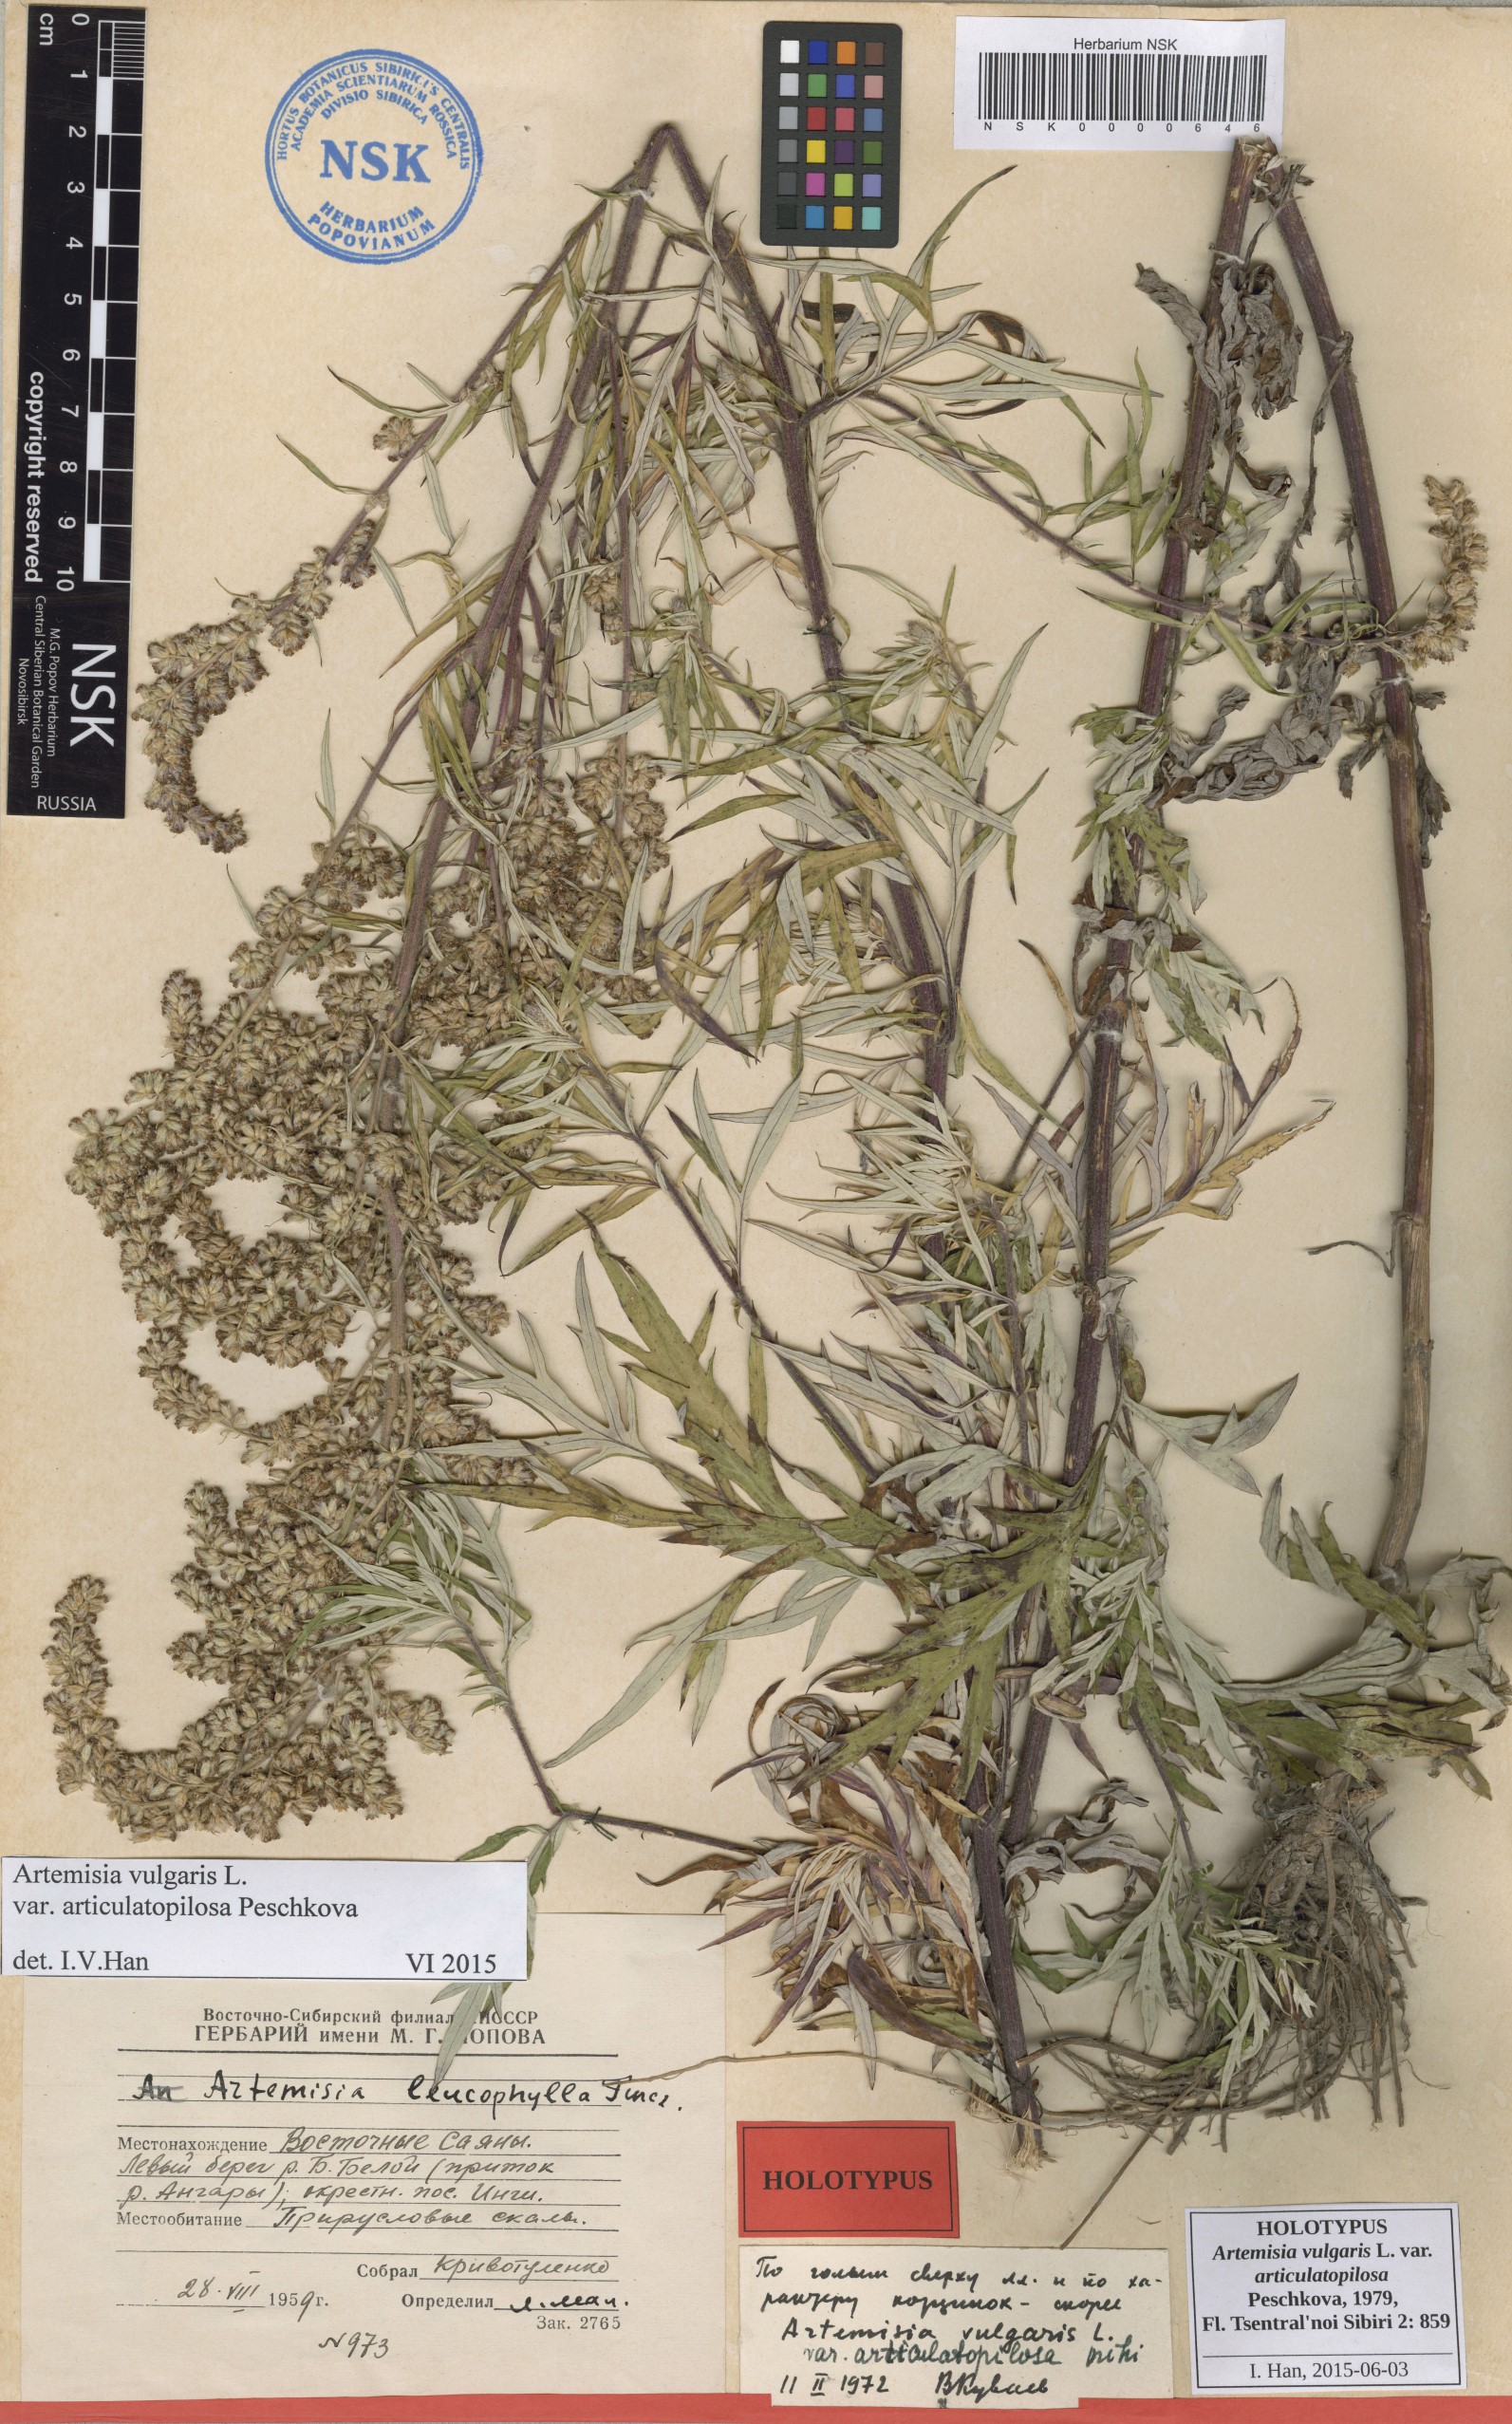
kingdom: Plantae
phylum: Tracheophyta
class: Magnoliopsida
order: Asterales
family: Asteraceae
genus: Artemisia
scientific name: Artemisia vulgaris
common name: Mugwort
